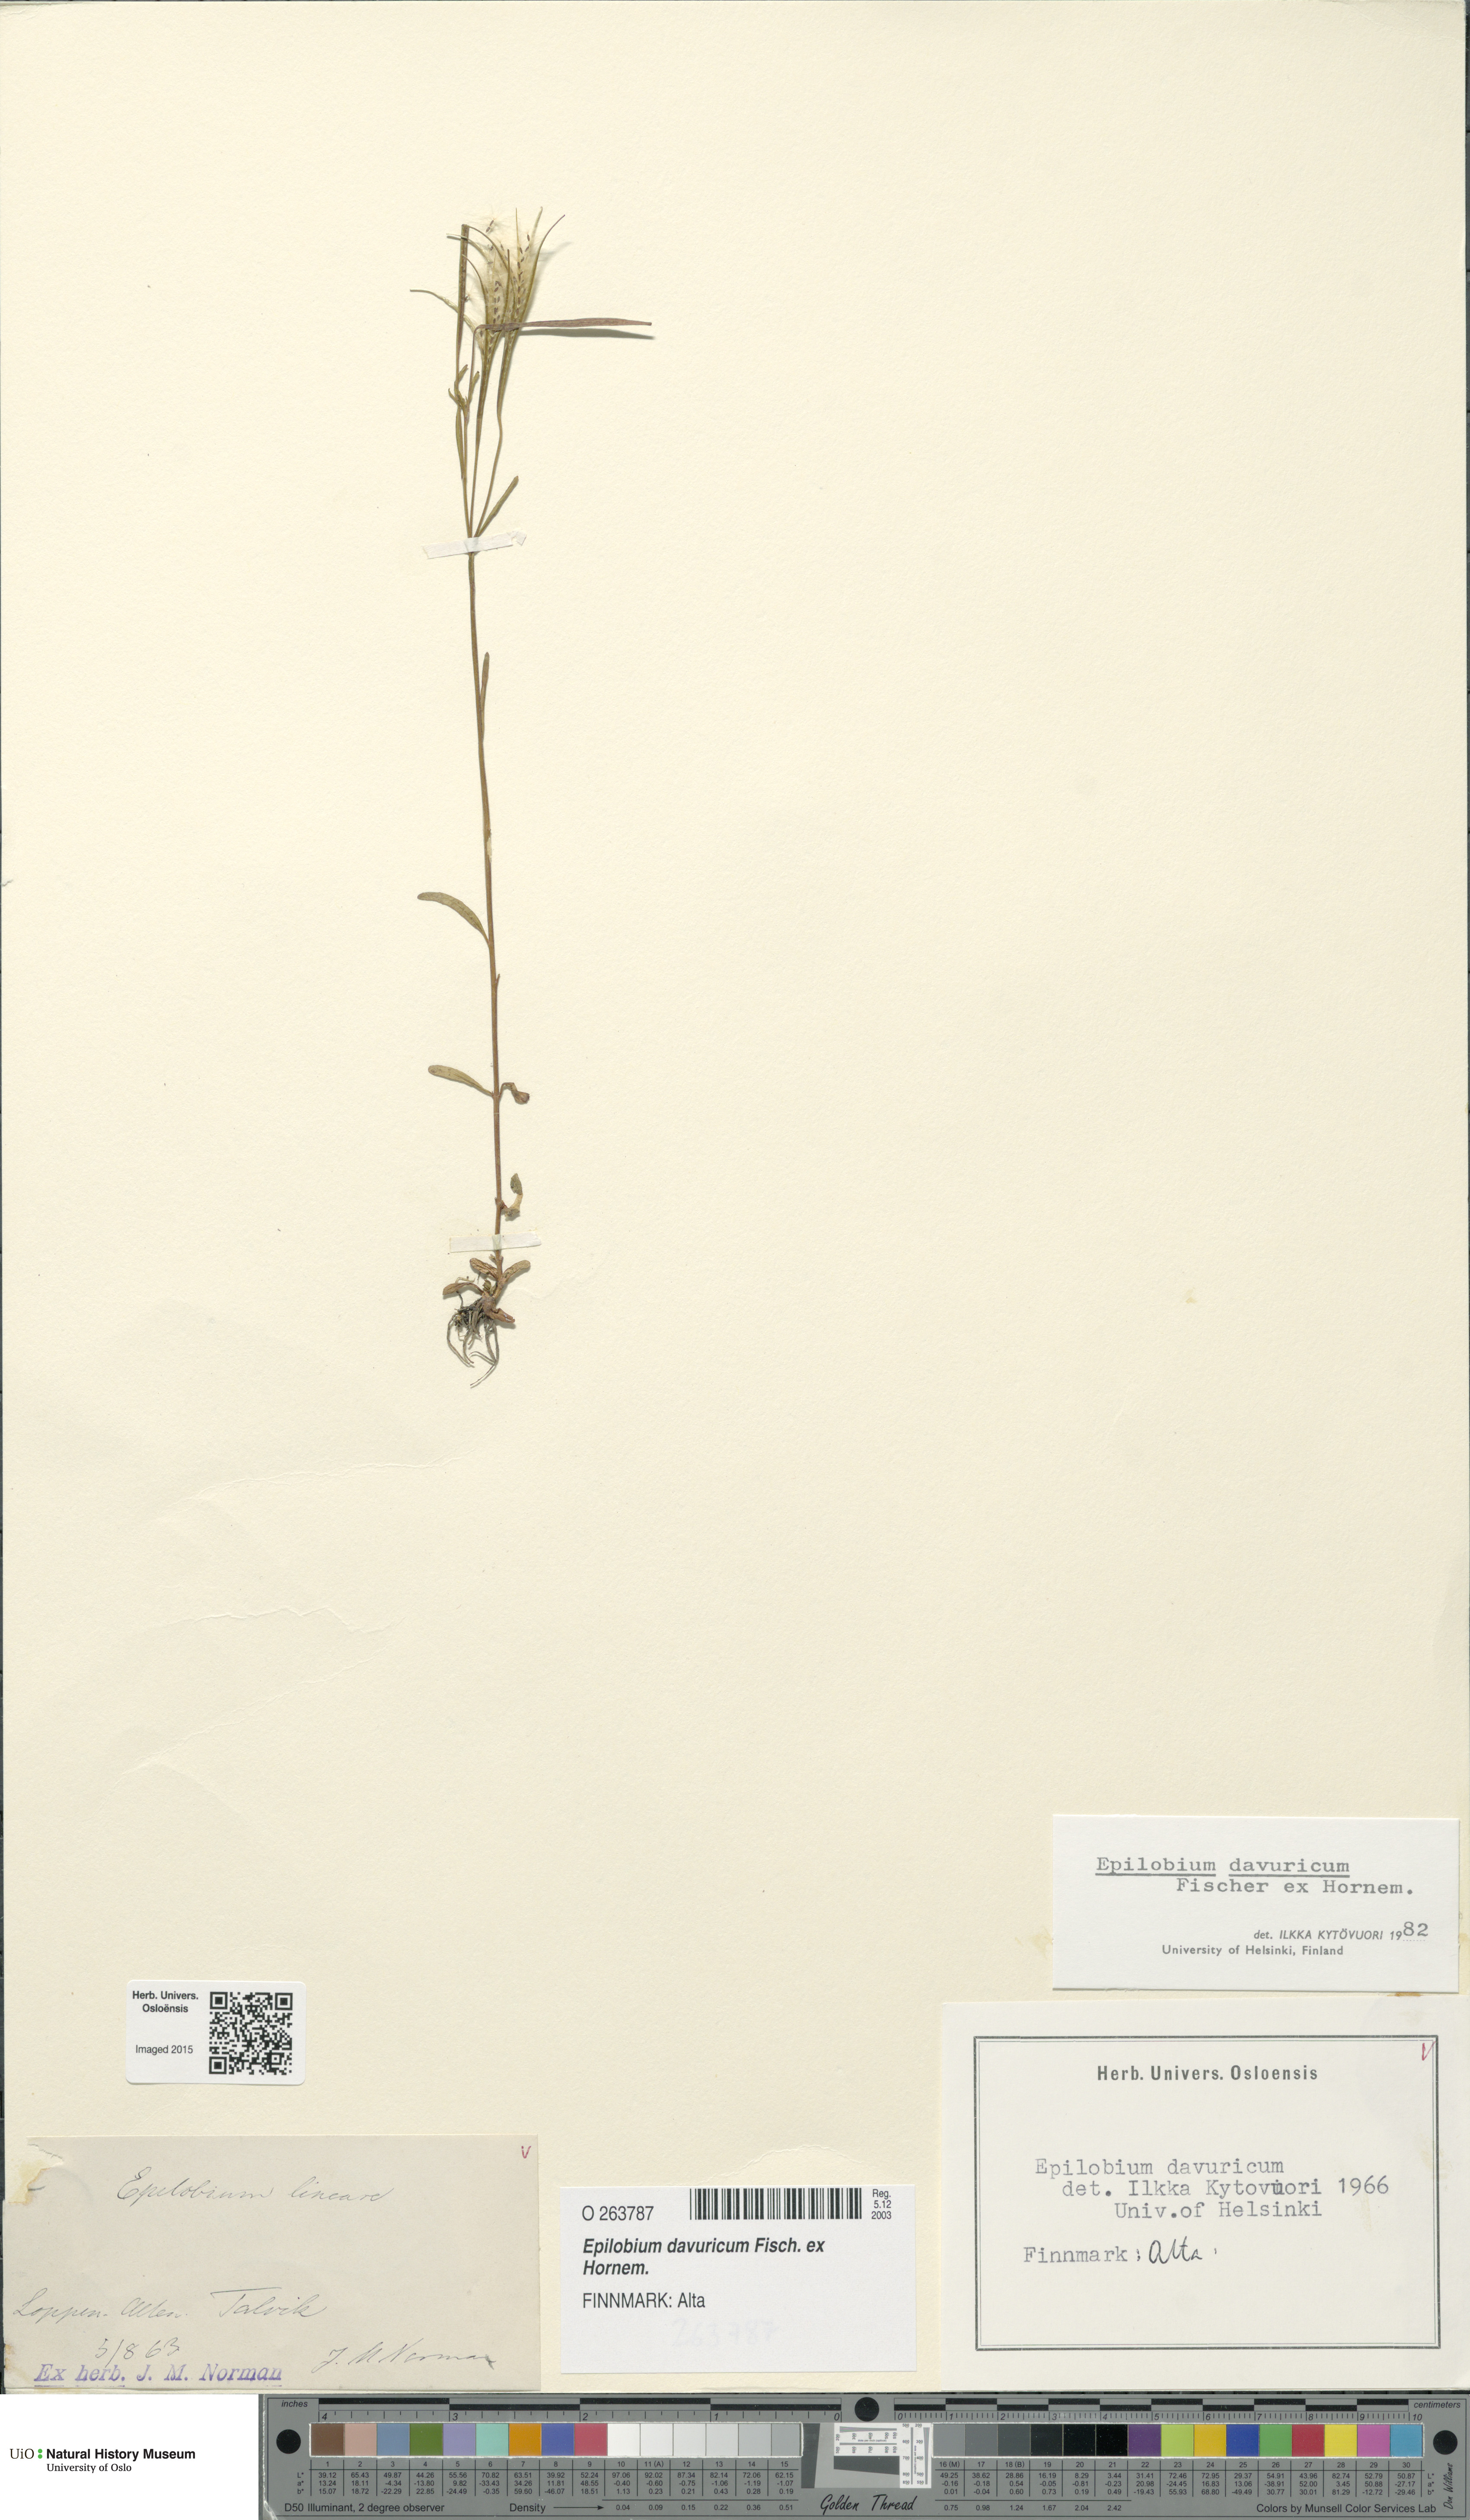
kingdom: Plantae
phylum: Tracheophyta
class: Magnoliopsida
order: Myrtales
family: Onagraceae
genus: Epilobium
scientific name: Epilobium davuricum
